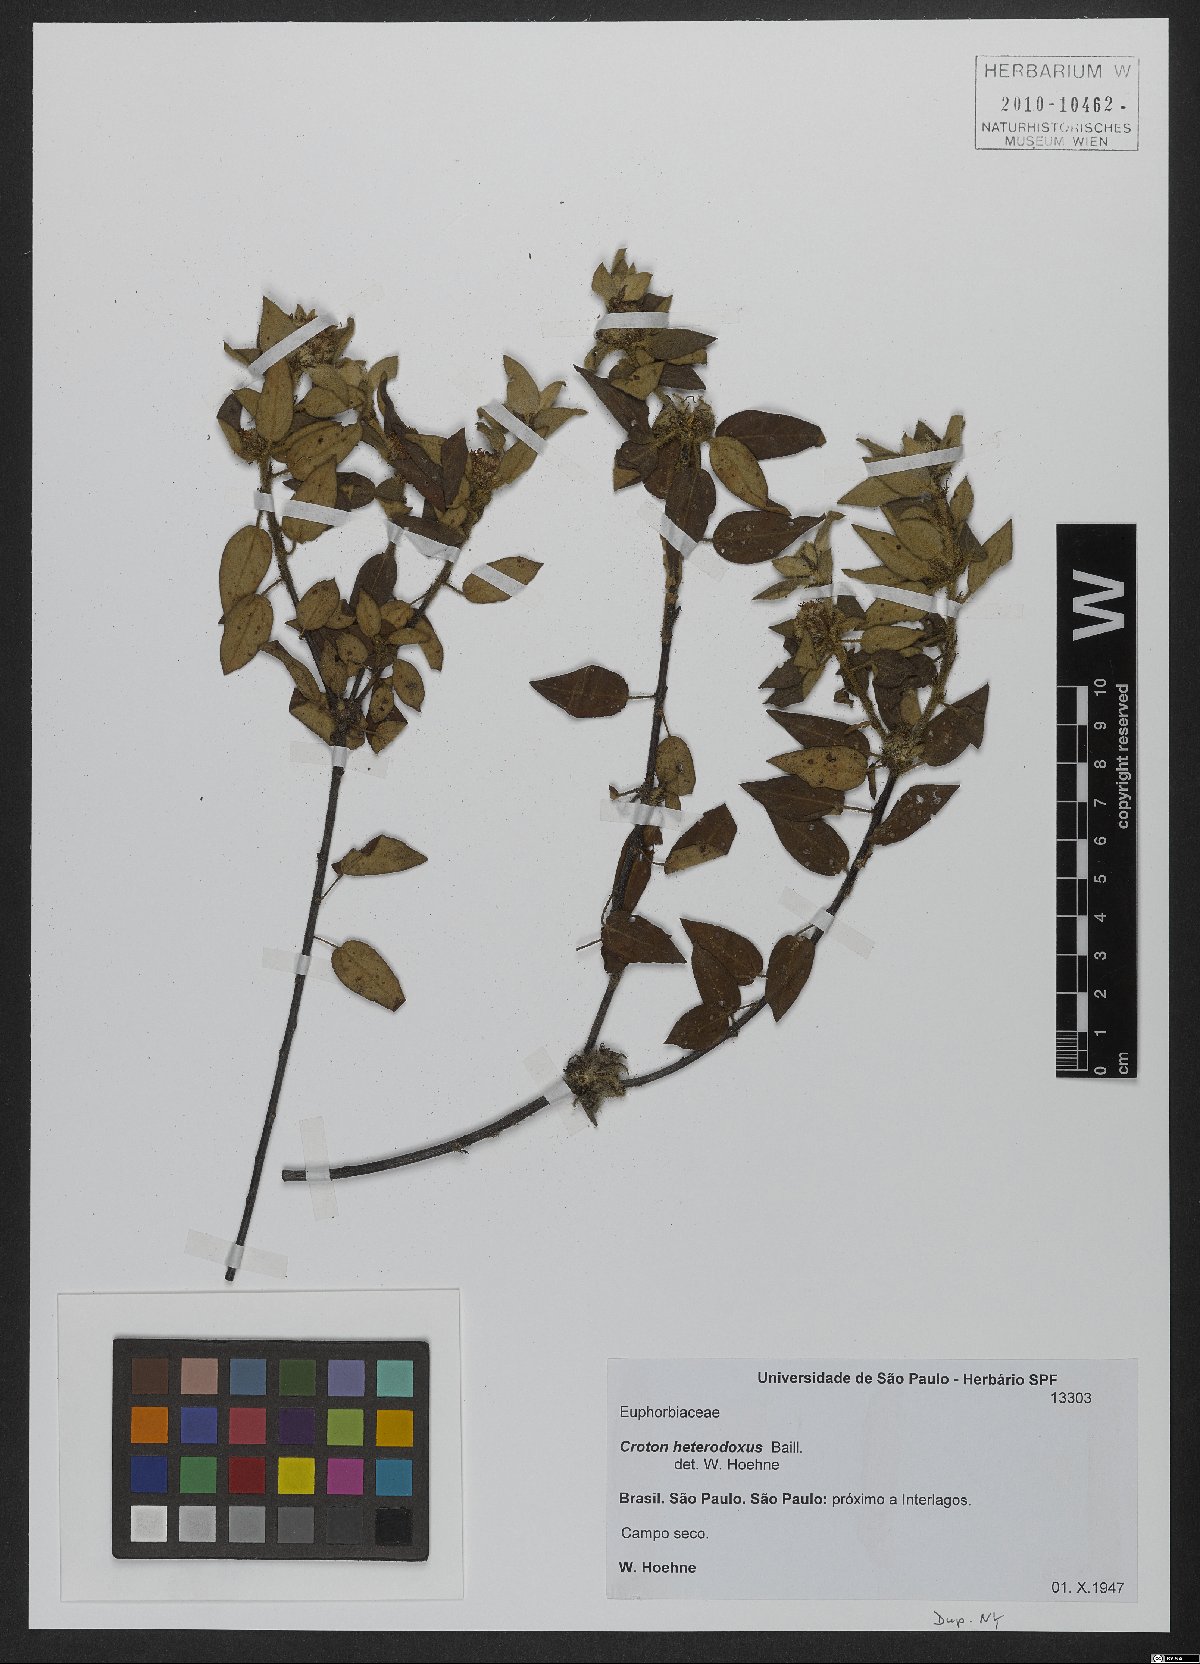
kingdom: Plantae
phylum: Tracheophyta
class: Magnoliopsida
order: Malpighiales
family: Euphorbiaceae
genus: Croton
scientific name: Croton heterodoxus
